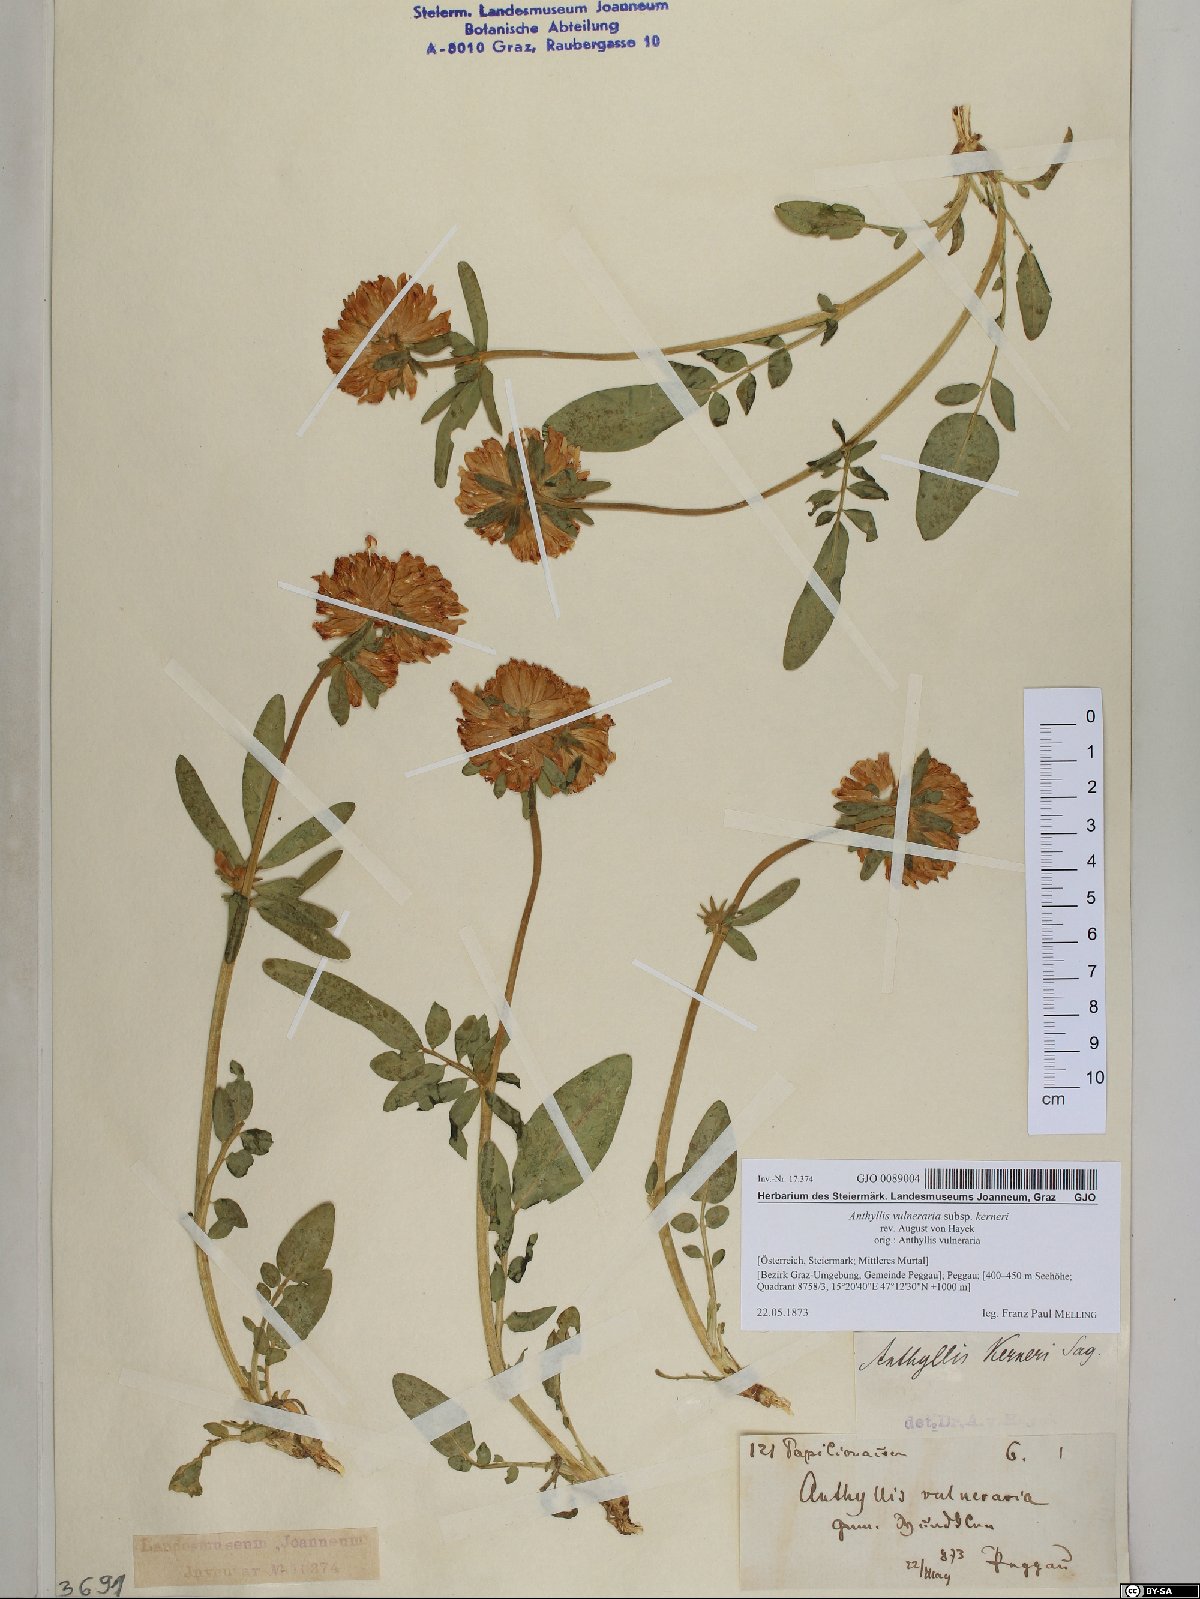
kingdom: Plantae
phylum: Tracheophyta
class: Magnoliopsida
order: Fabales
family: Fabaceae
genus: Anthyllis
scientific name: Anthyllis vulneraria
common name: Kidney vetch
